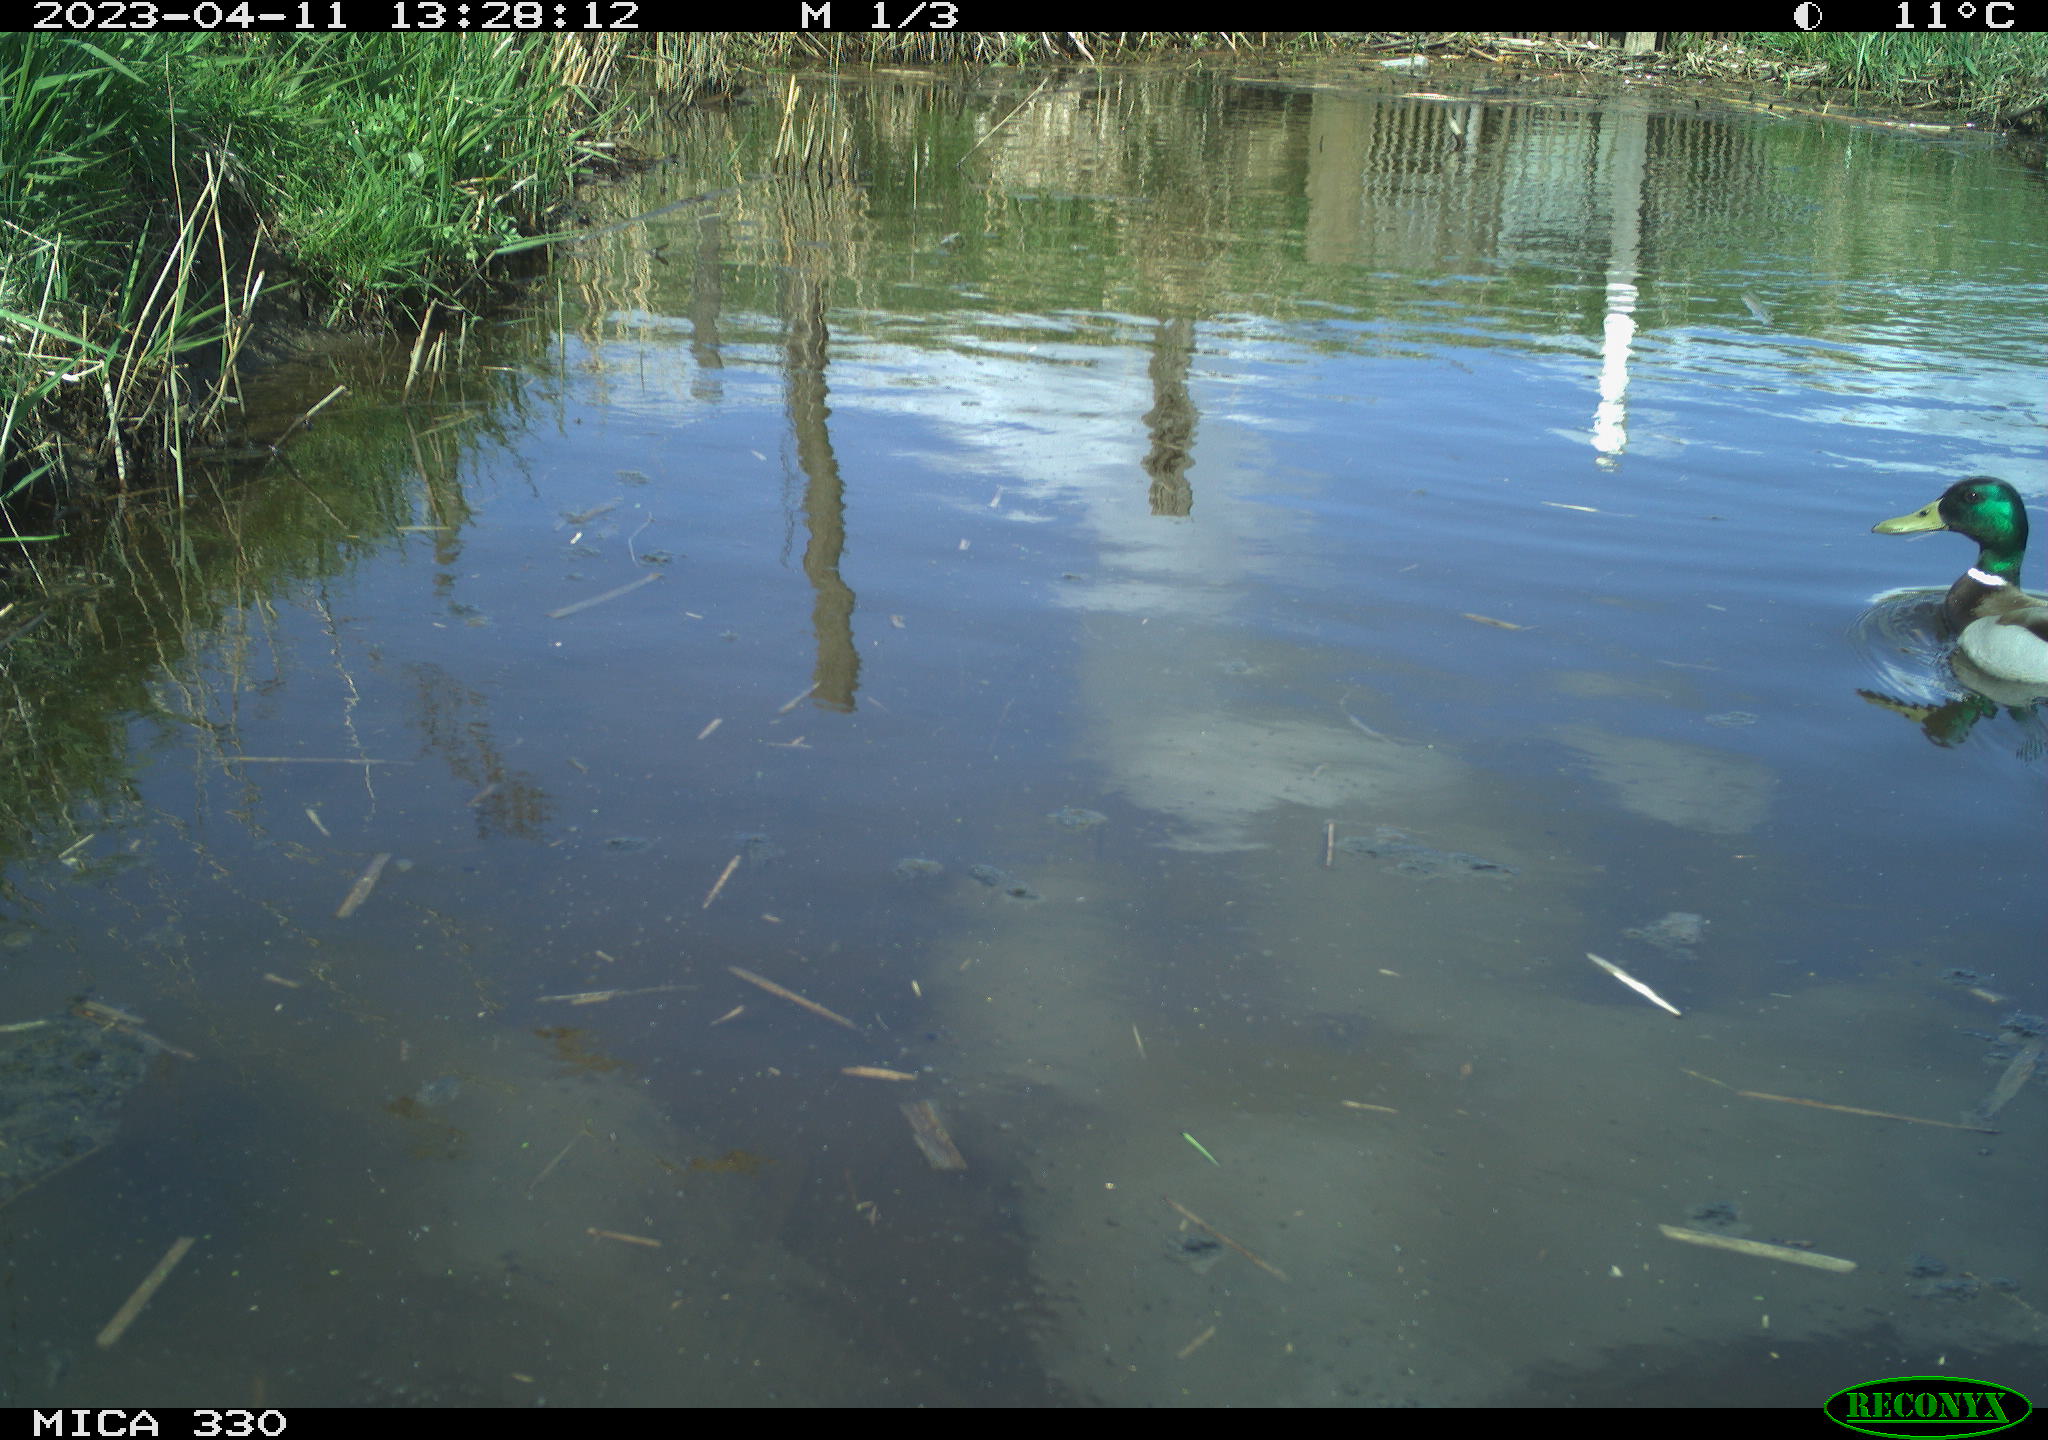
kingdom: Animalia
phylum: Chordata
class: Aves
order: Anseriformes
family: Anatidae
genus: Anas
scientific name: Anas platyrhynchos
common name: Mallard
